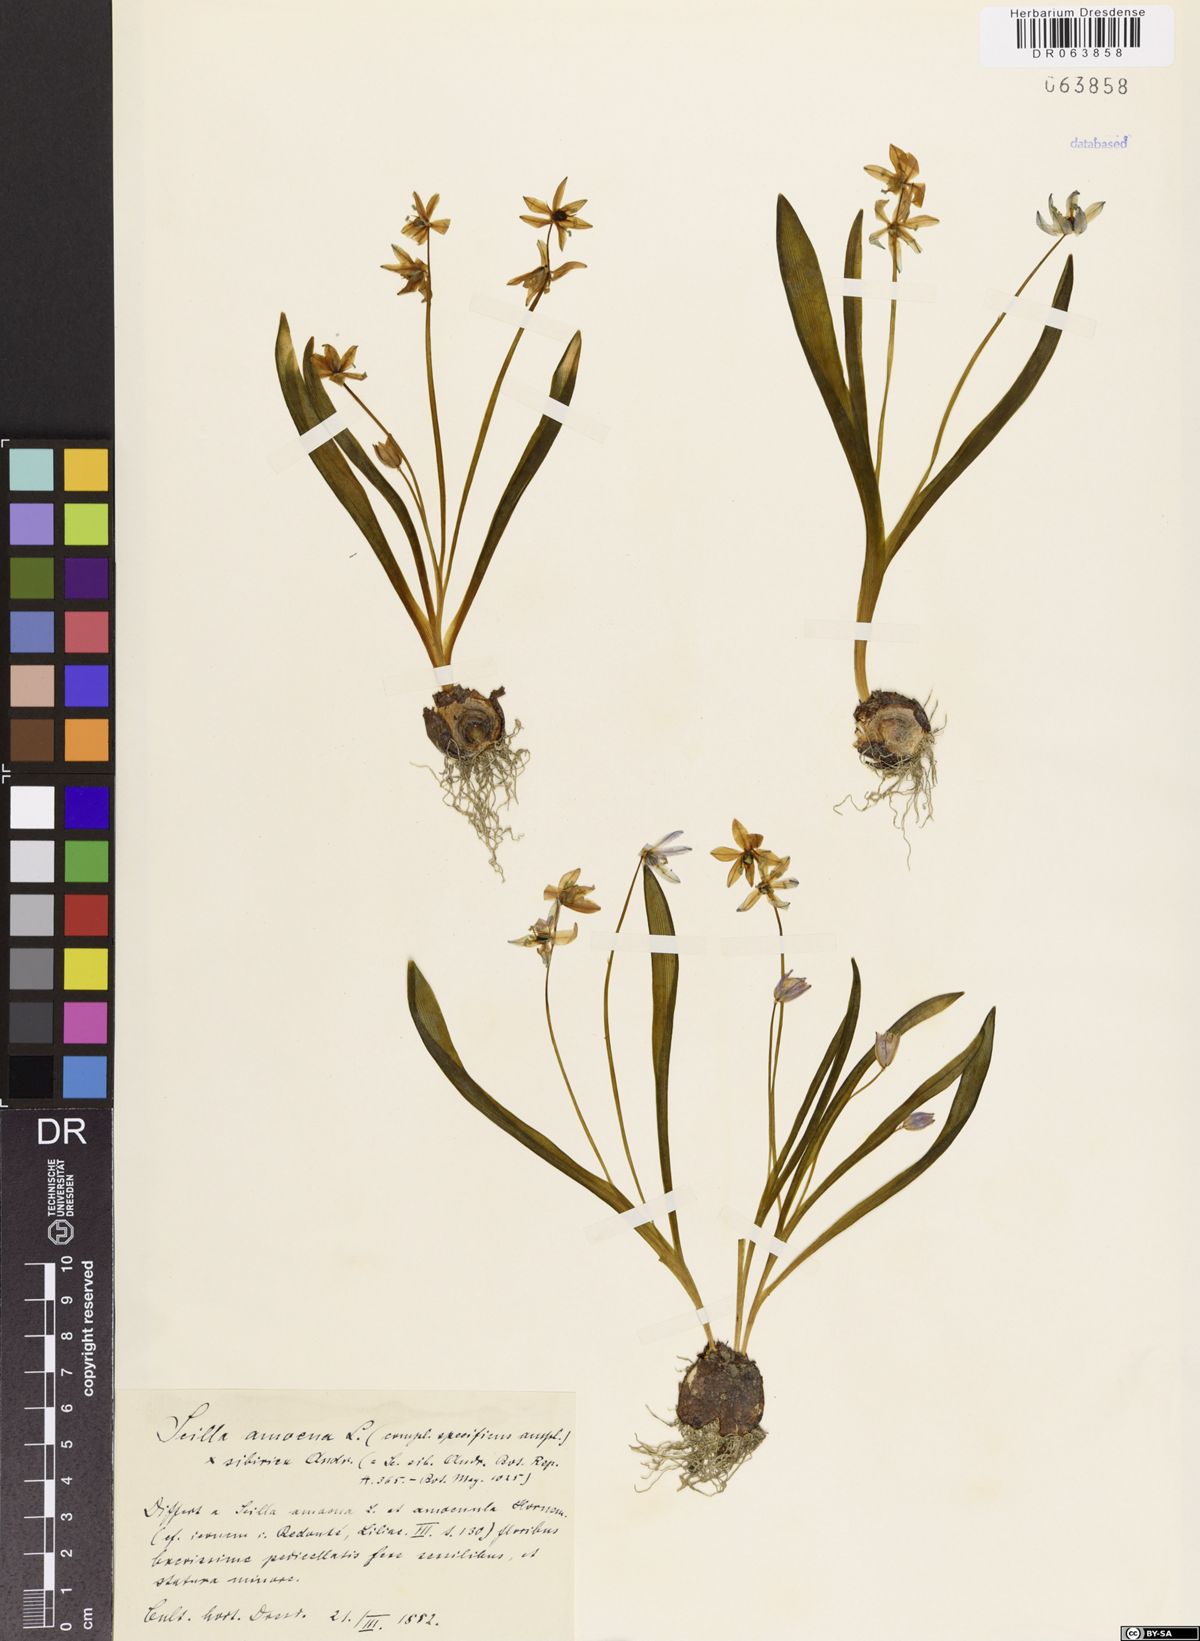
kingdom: Plantae
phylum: Tracheophyta
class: Liliopsida
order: Asparagales
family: Asparagaceae
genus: Scilla
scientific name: Scilla amoena
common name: Star-hyacinth
